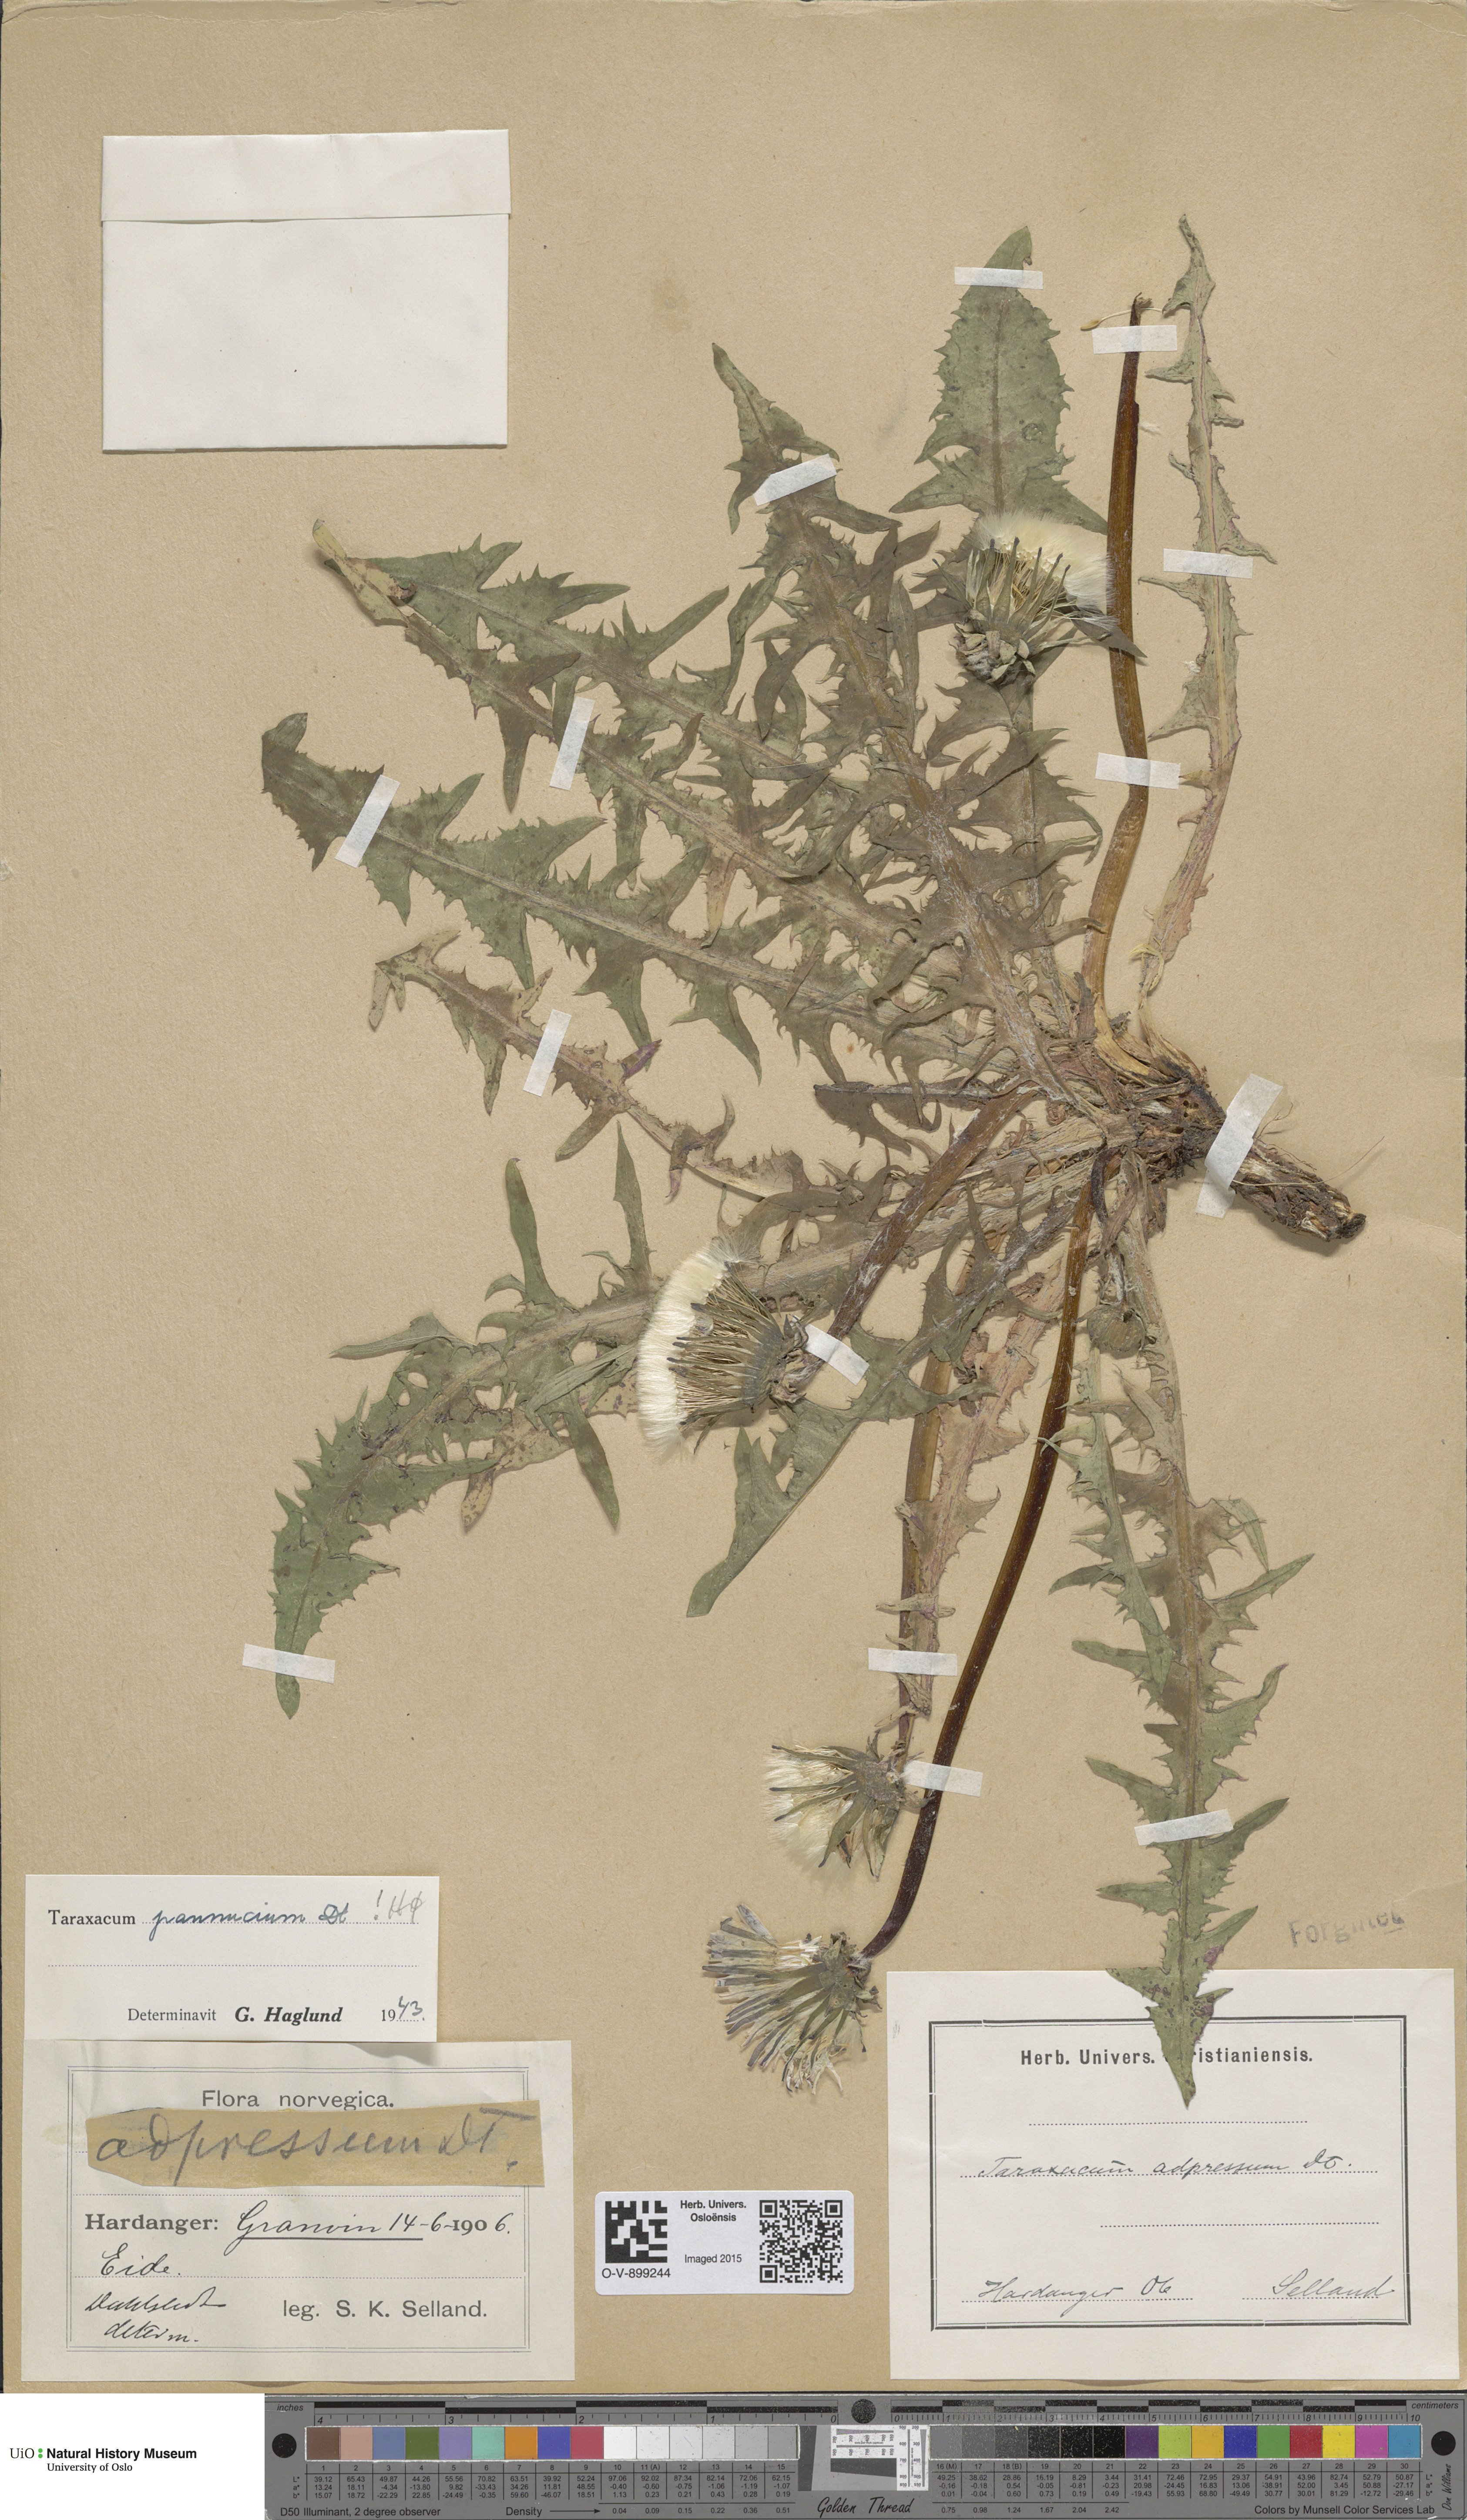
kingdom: Plantae
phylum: Tracheophyta
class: Magnoliopsida
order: Asterales
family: Asteraceae
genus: Taraxacum
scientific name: Taraxacum pannucium
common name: Green-stalked dandelion
